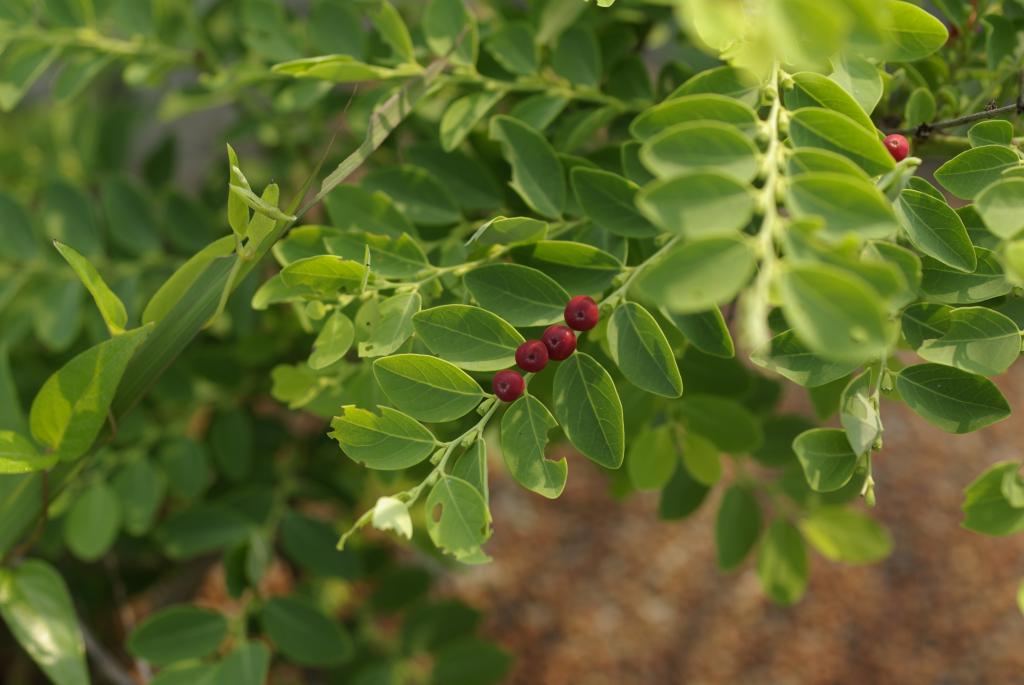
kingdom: Plantae
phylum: Tracheophyta
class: Magnoliopsida
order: Malpighiales
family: Phyllanthaceae
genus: Breynia
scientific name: Breynia officinalis
